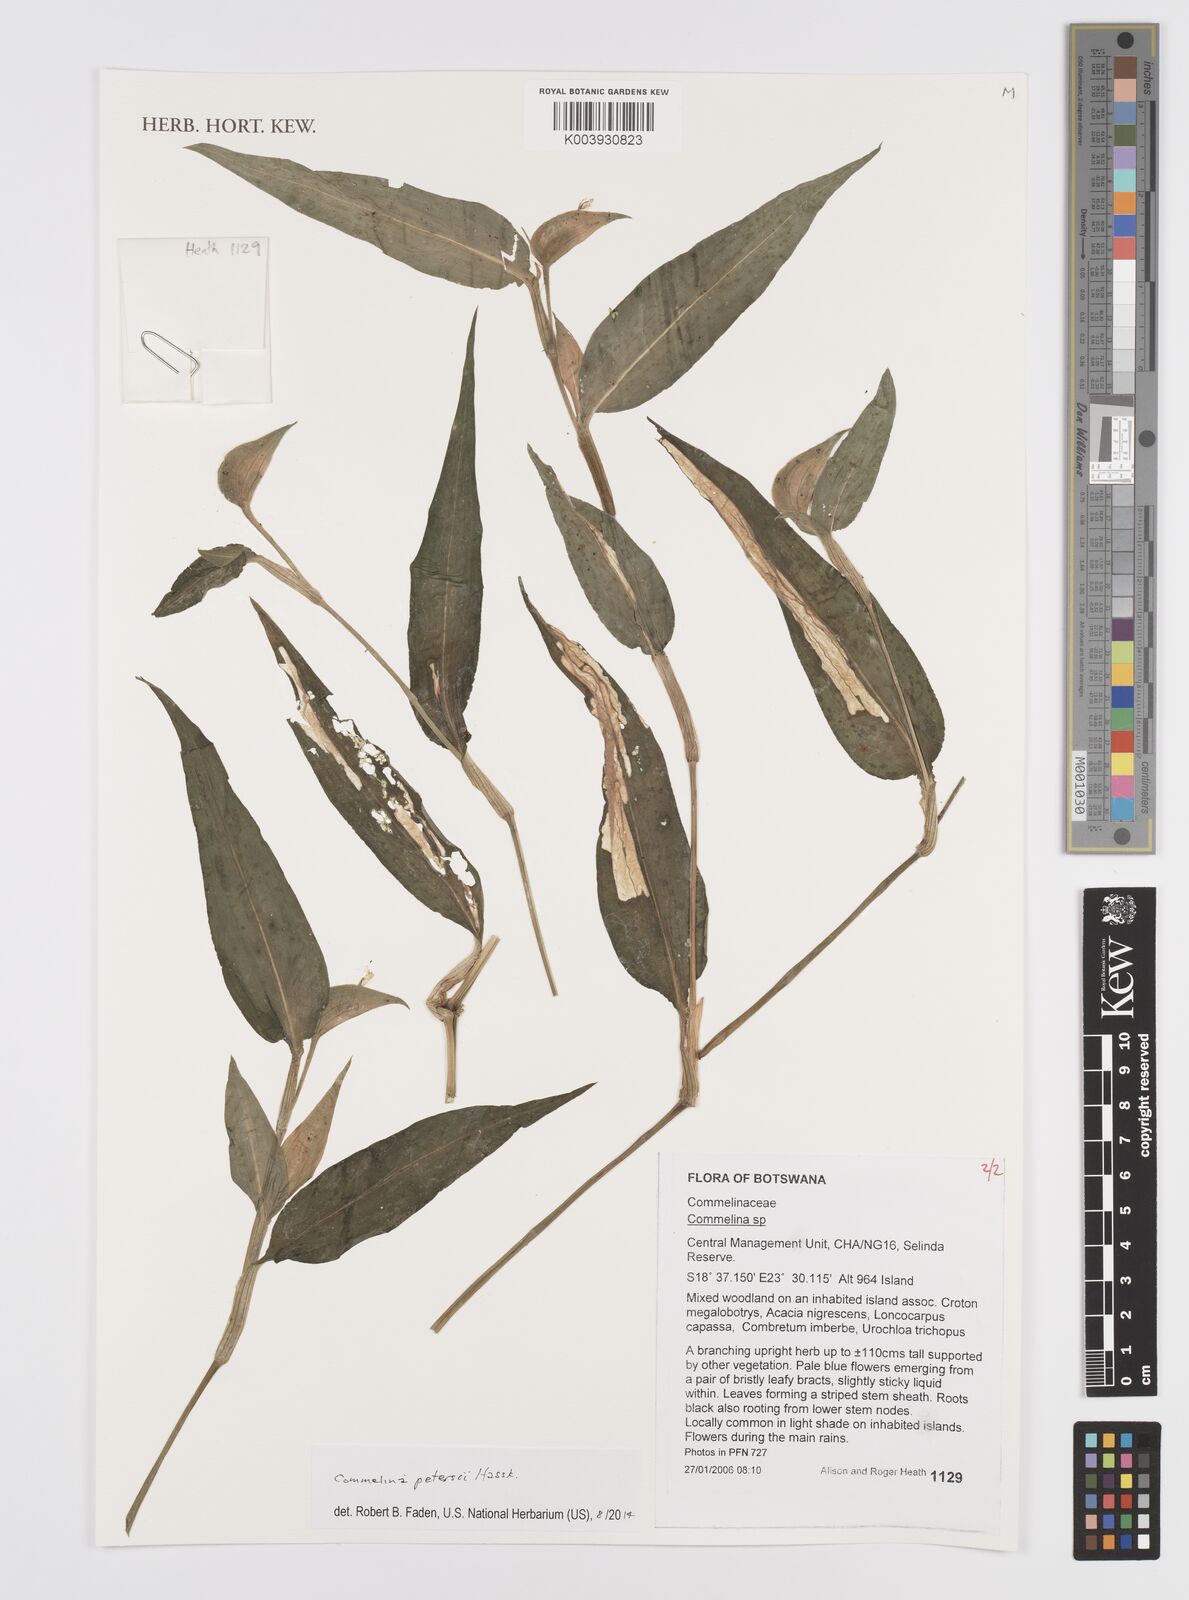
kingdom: Plantae
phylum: Tracheophyta
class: Liliopsida
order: Commelinales
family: Commelinaceae
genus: Commelina
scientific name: Commelina petersii
